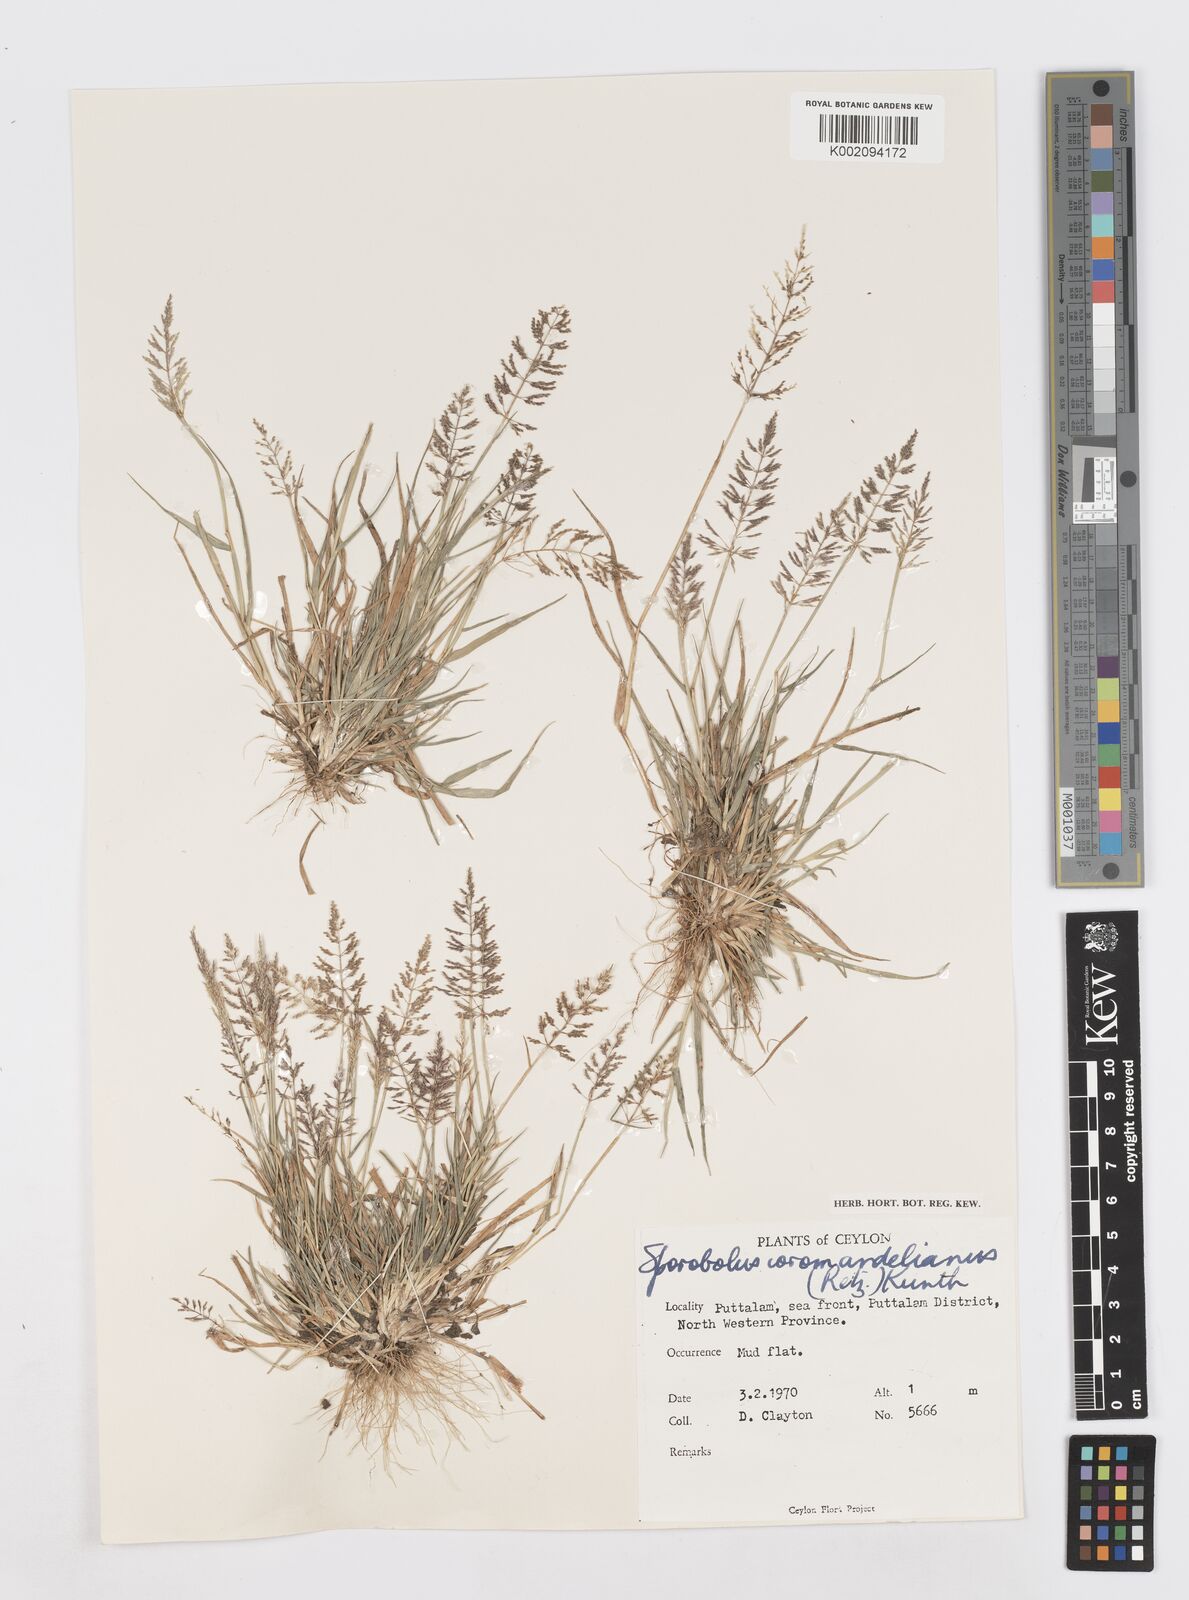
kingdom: Plantae
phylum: Tracheophyta
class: Liliopsida
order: Poales
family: Poaceae
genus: Sporobolus
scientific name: Sporobolus coromandelianus
